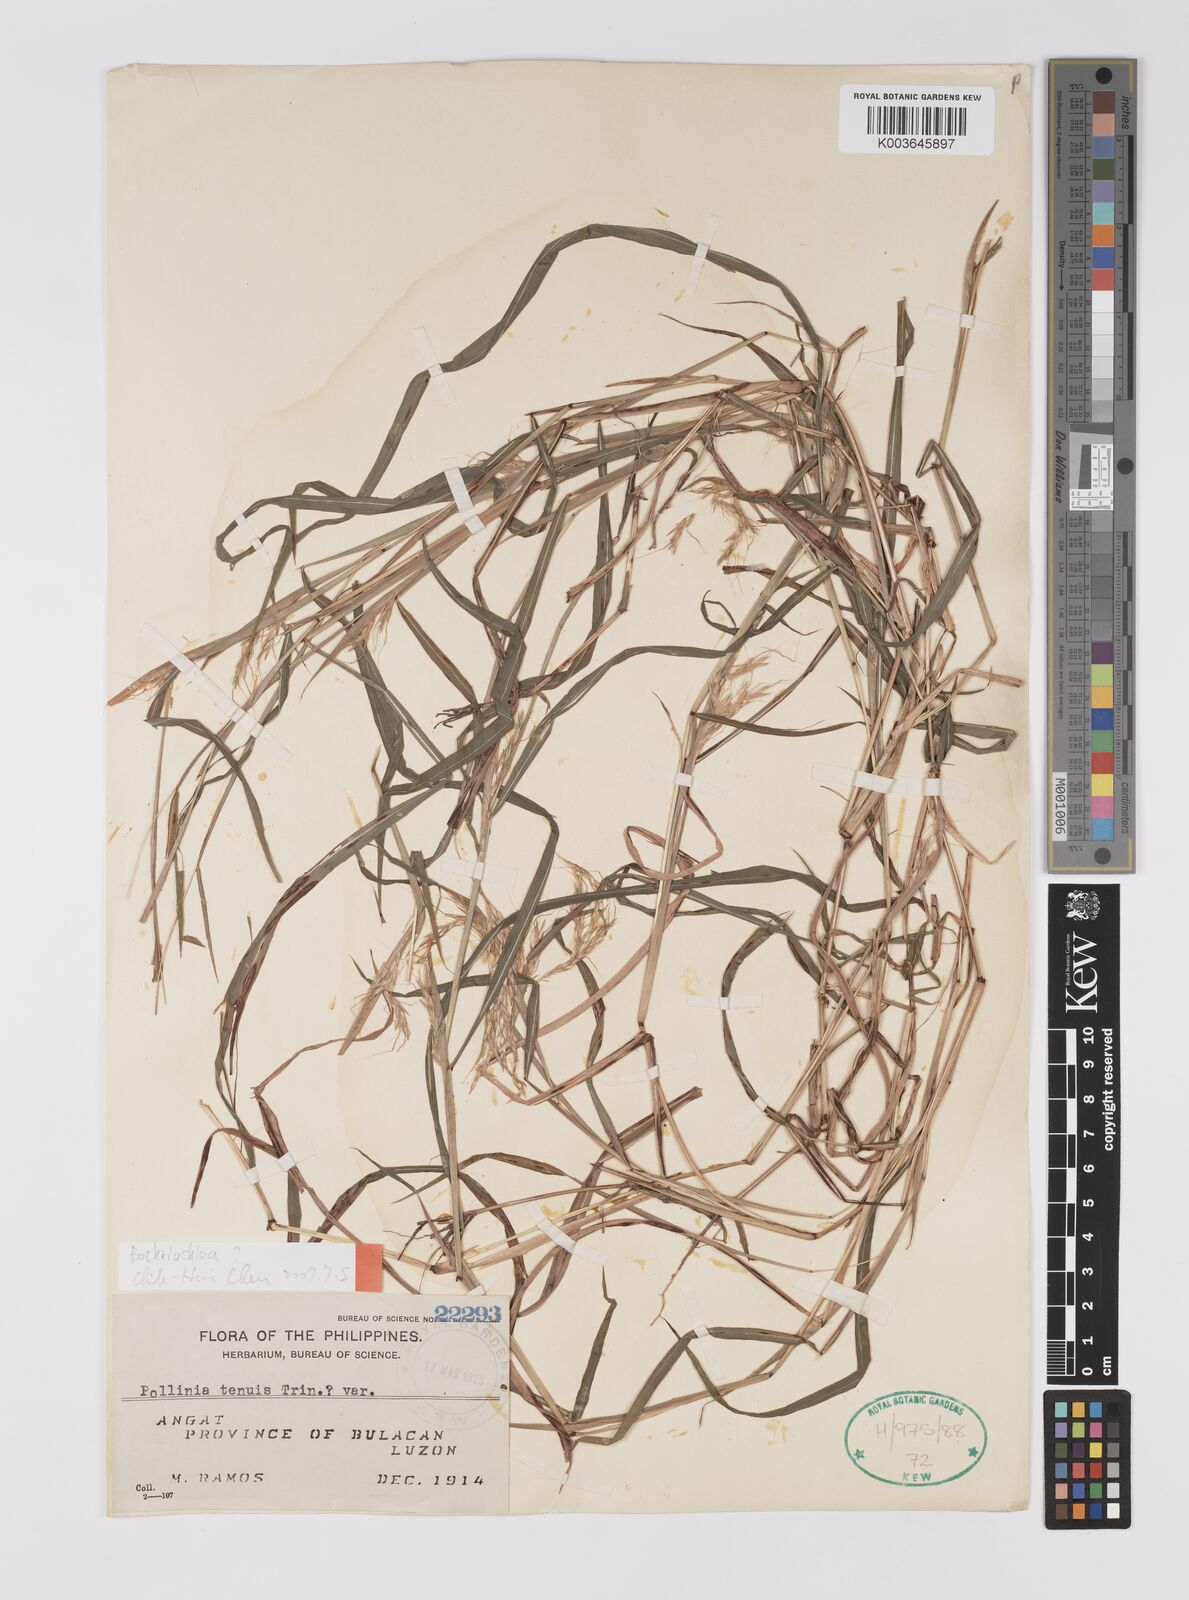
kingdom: Plantae
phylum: Tracheophyta
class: Liliopsida
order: Poales
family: Poaceae
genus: Microstegium
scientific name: Microstegium
